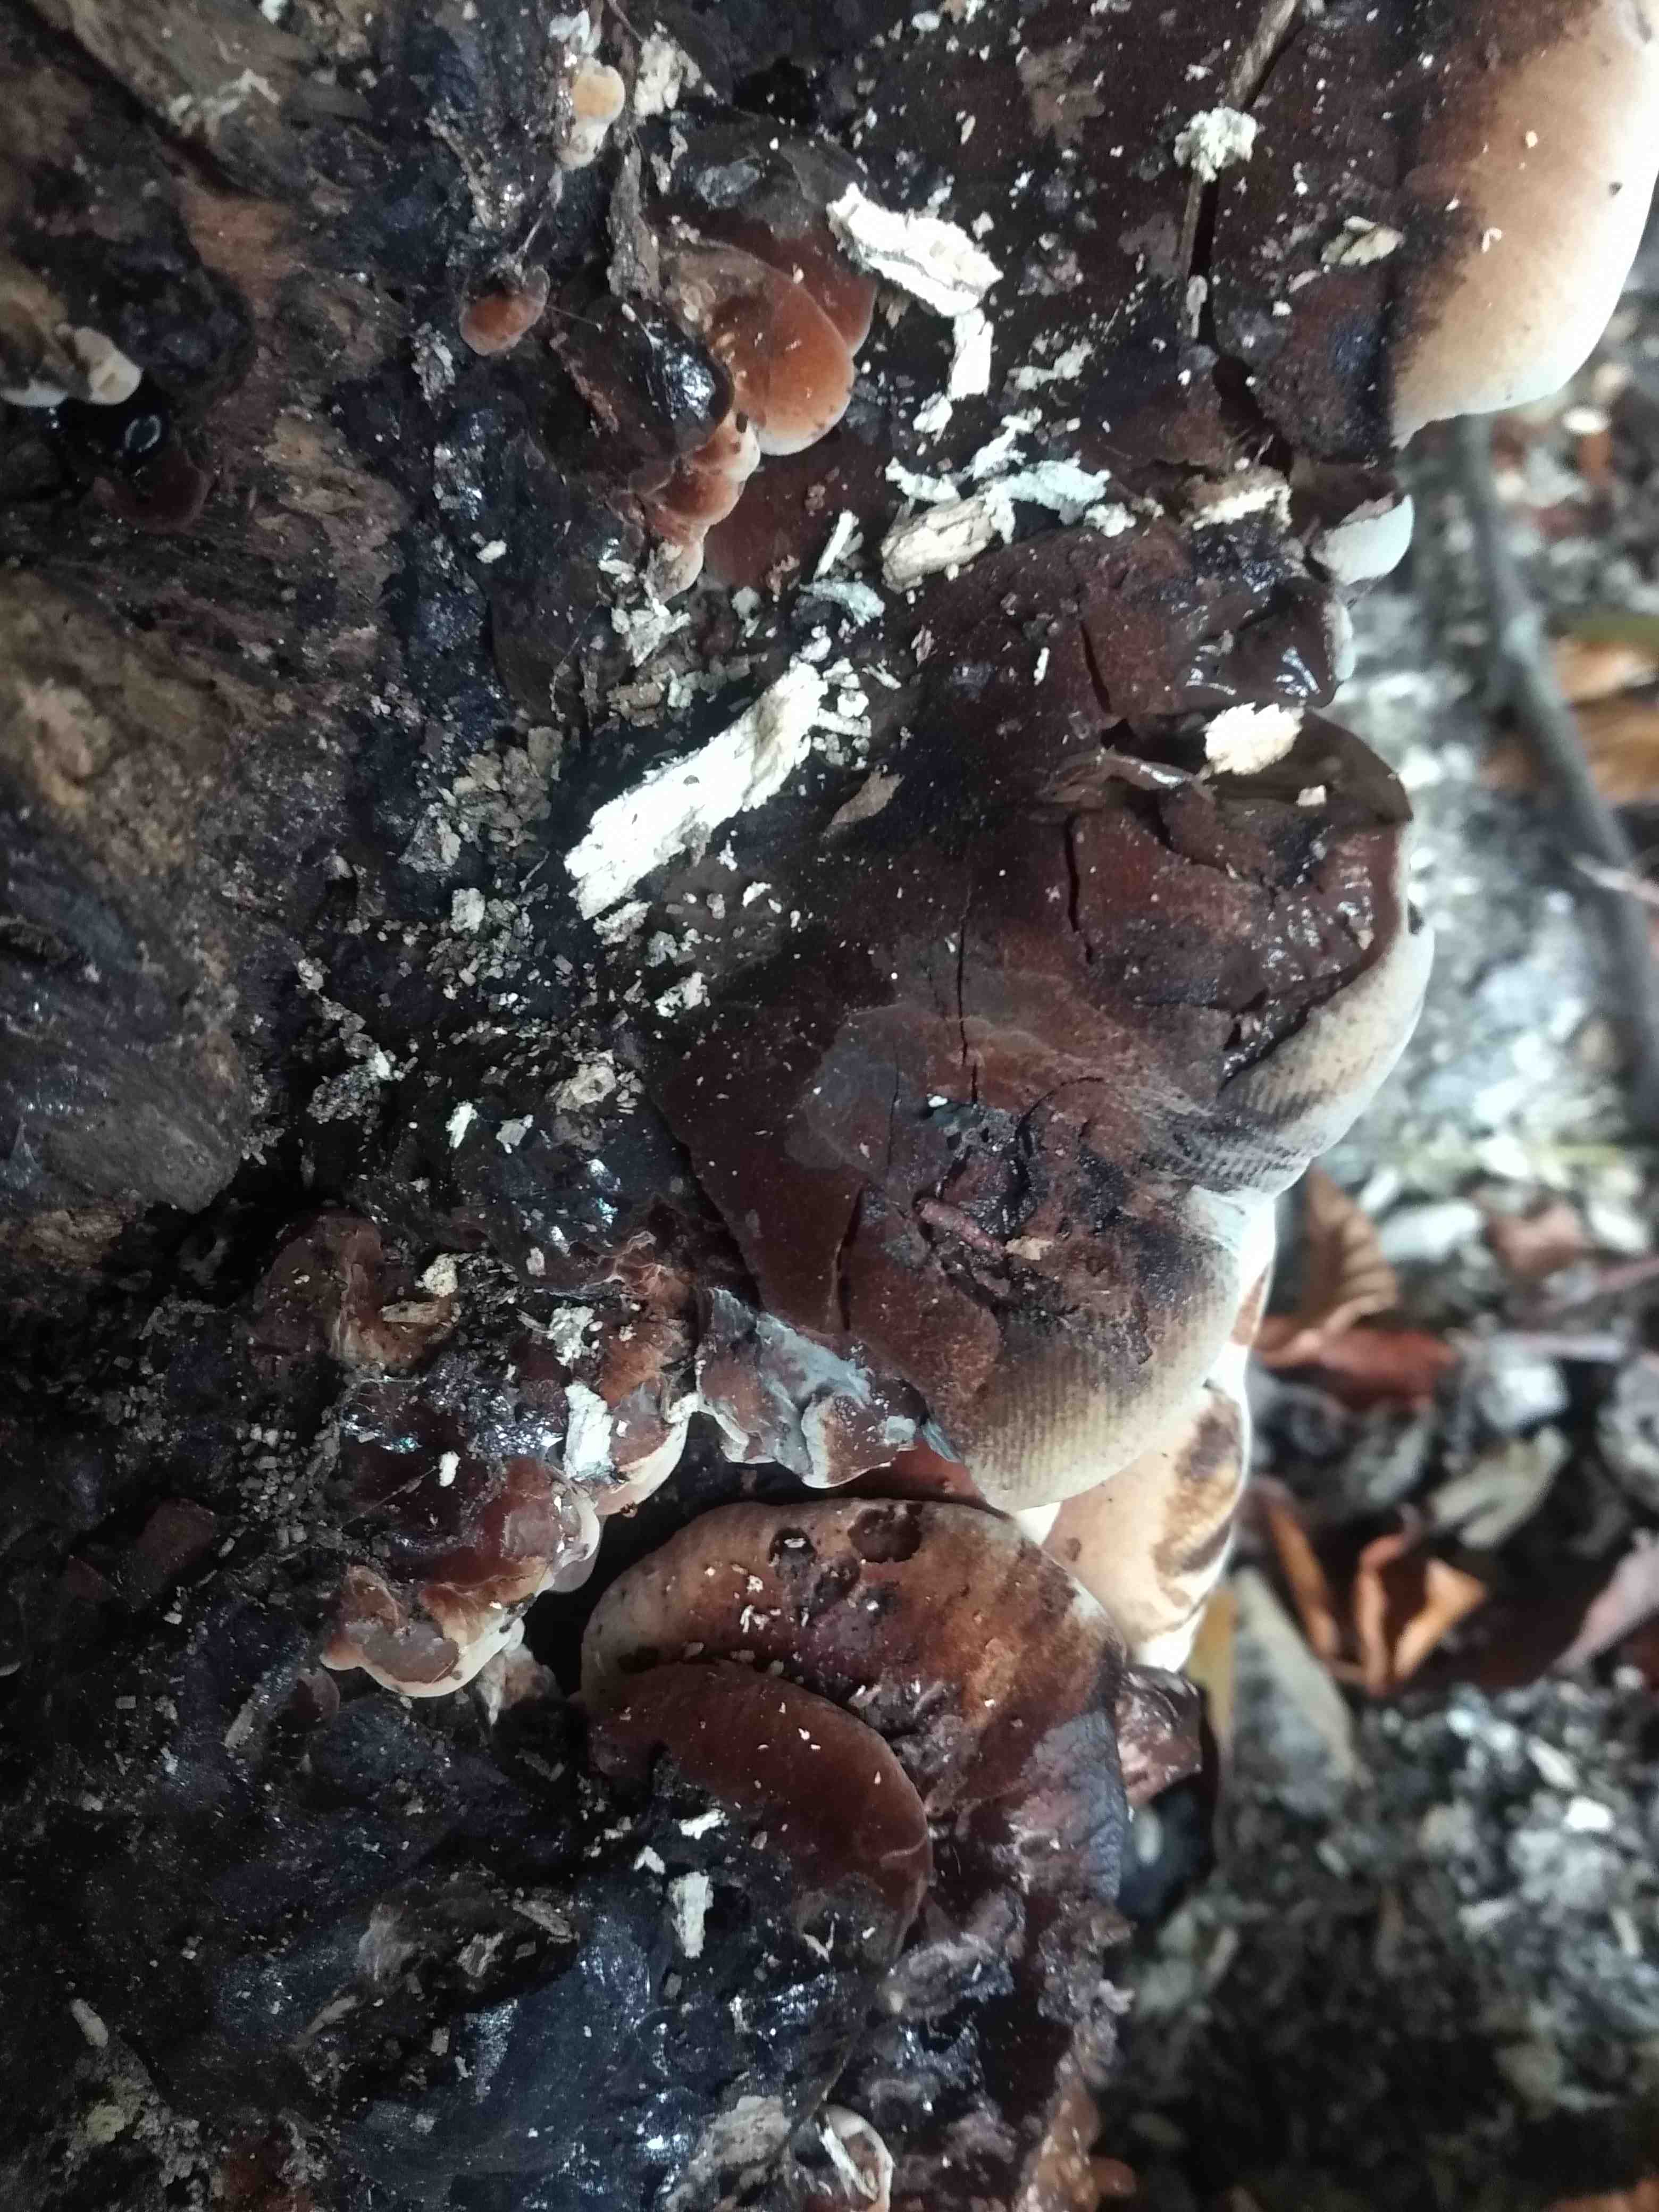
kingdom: Fungi
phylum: Basidiomycota
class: Agaricomycetes
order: Polyporales
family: Ischnodermataceae
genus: Ischnoderma
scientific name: Ischnoderma resinosum
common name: løv-tjæreporesvamp
